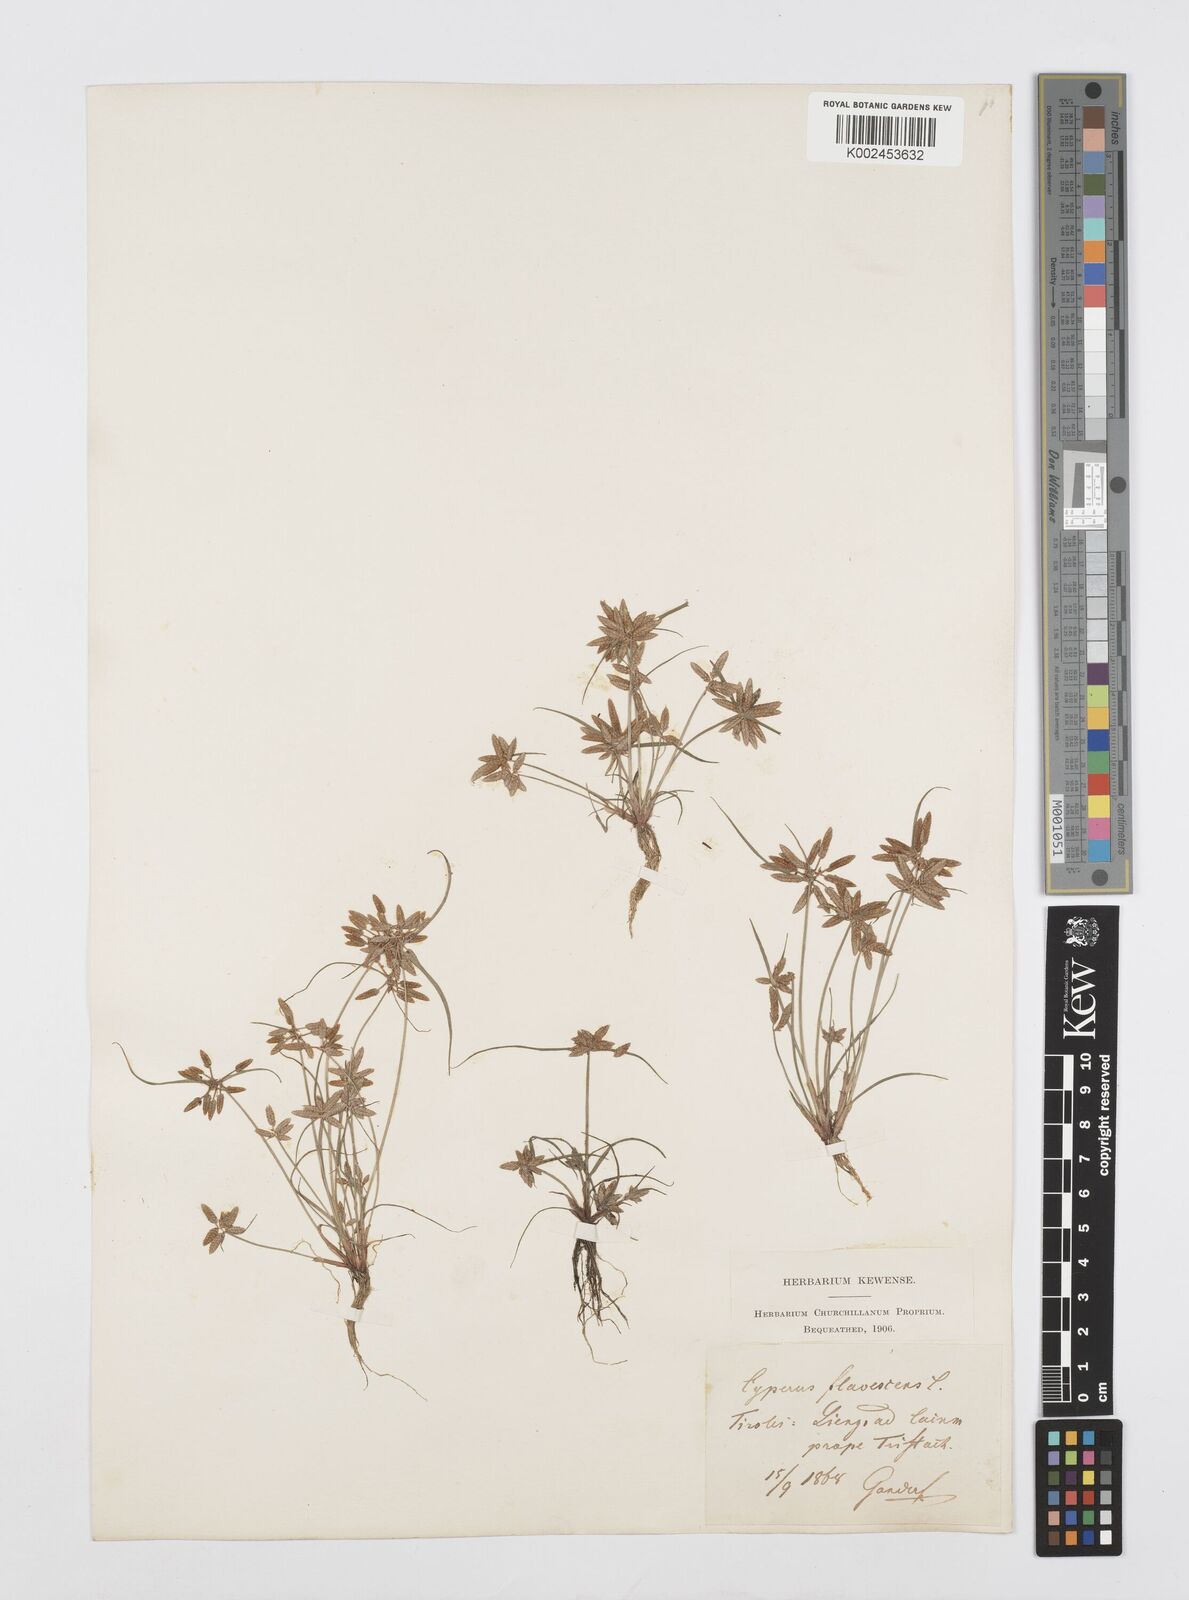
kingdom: Plantae
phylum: Tracheophyta
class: Liliopsida
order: Poales
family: Cyperaceae
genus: Cyperus
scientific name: Cyperus flavescens
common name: Yellow galingale
